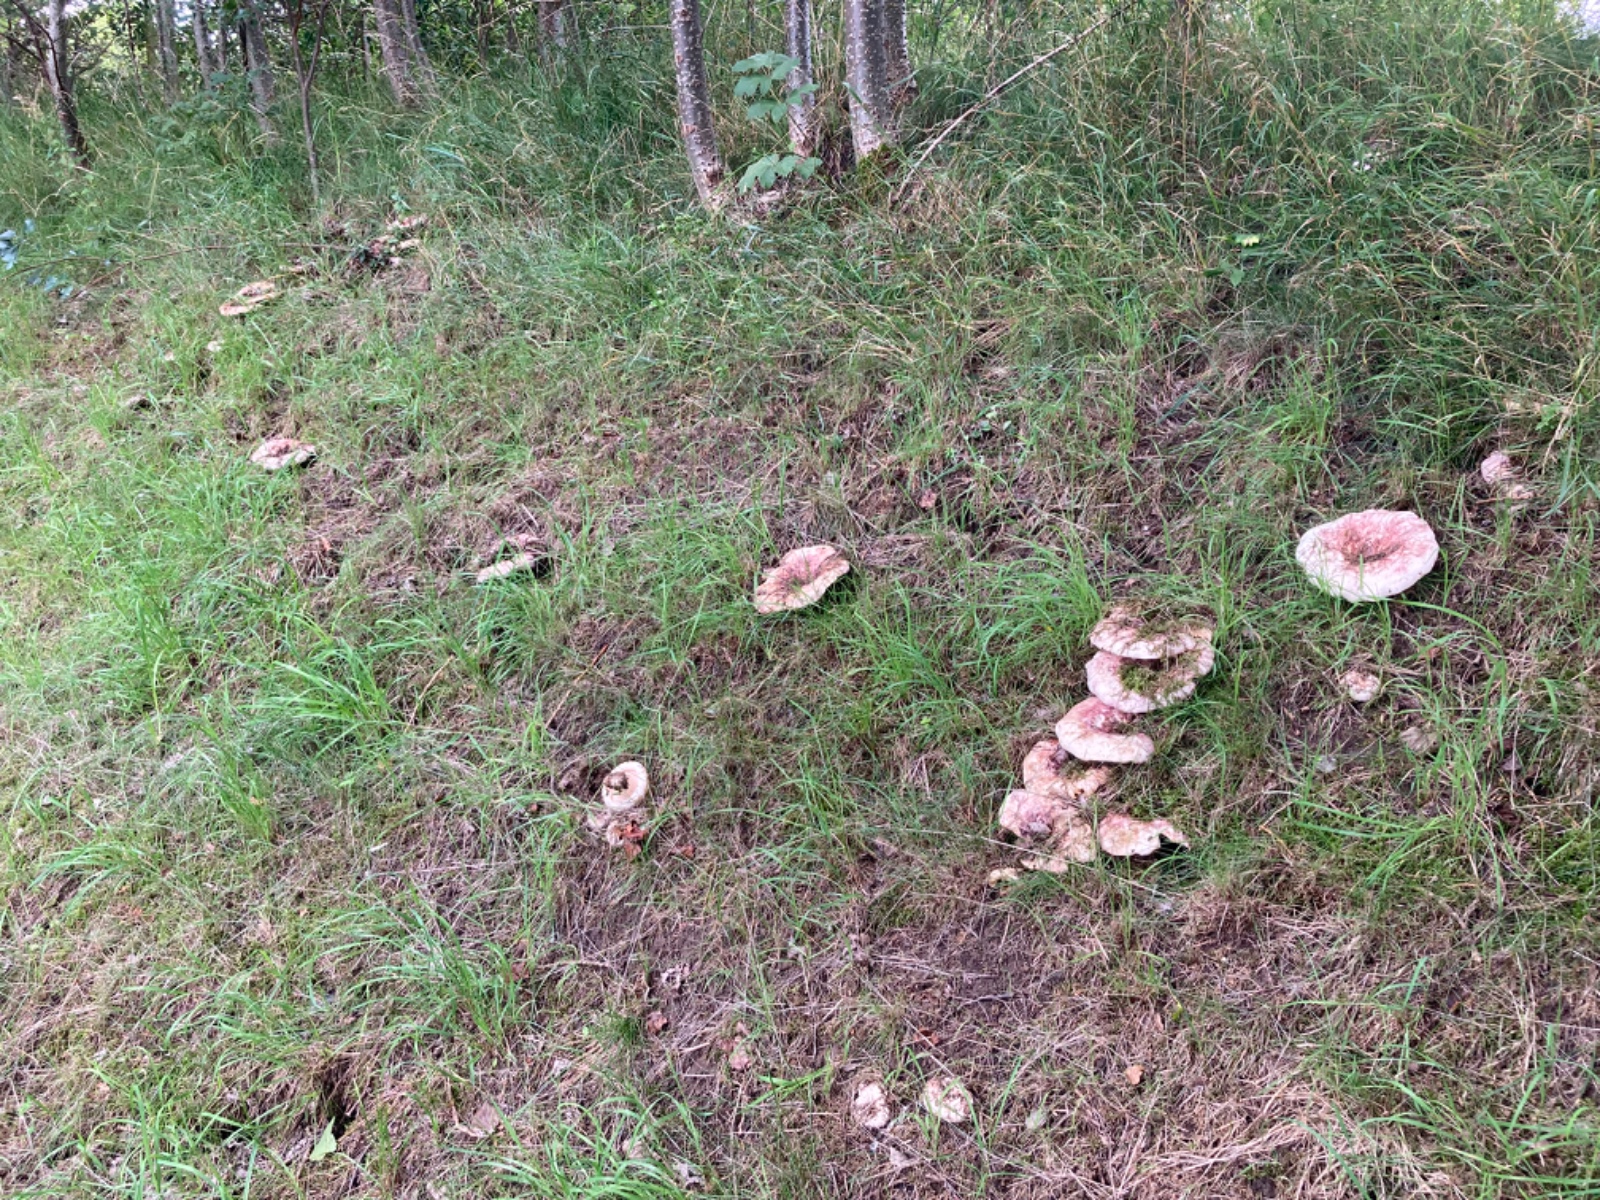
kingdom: Fungi
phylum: Basidiomycota
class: Agaricomycetes
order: Russulales
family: Russulaceae
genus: Lactarius
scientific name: Lactarius controversus
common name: rosabladet mælkehat
